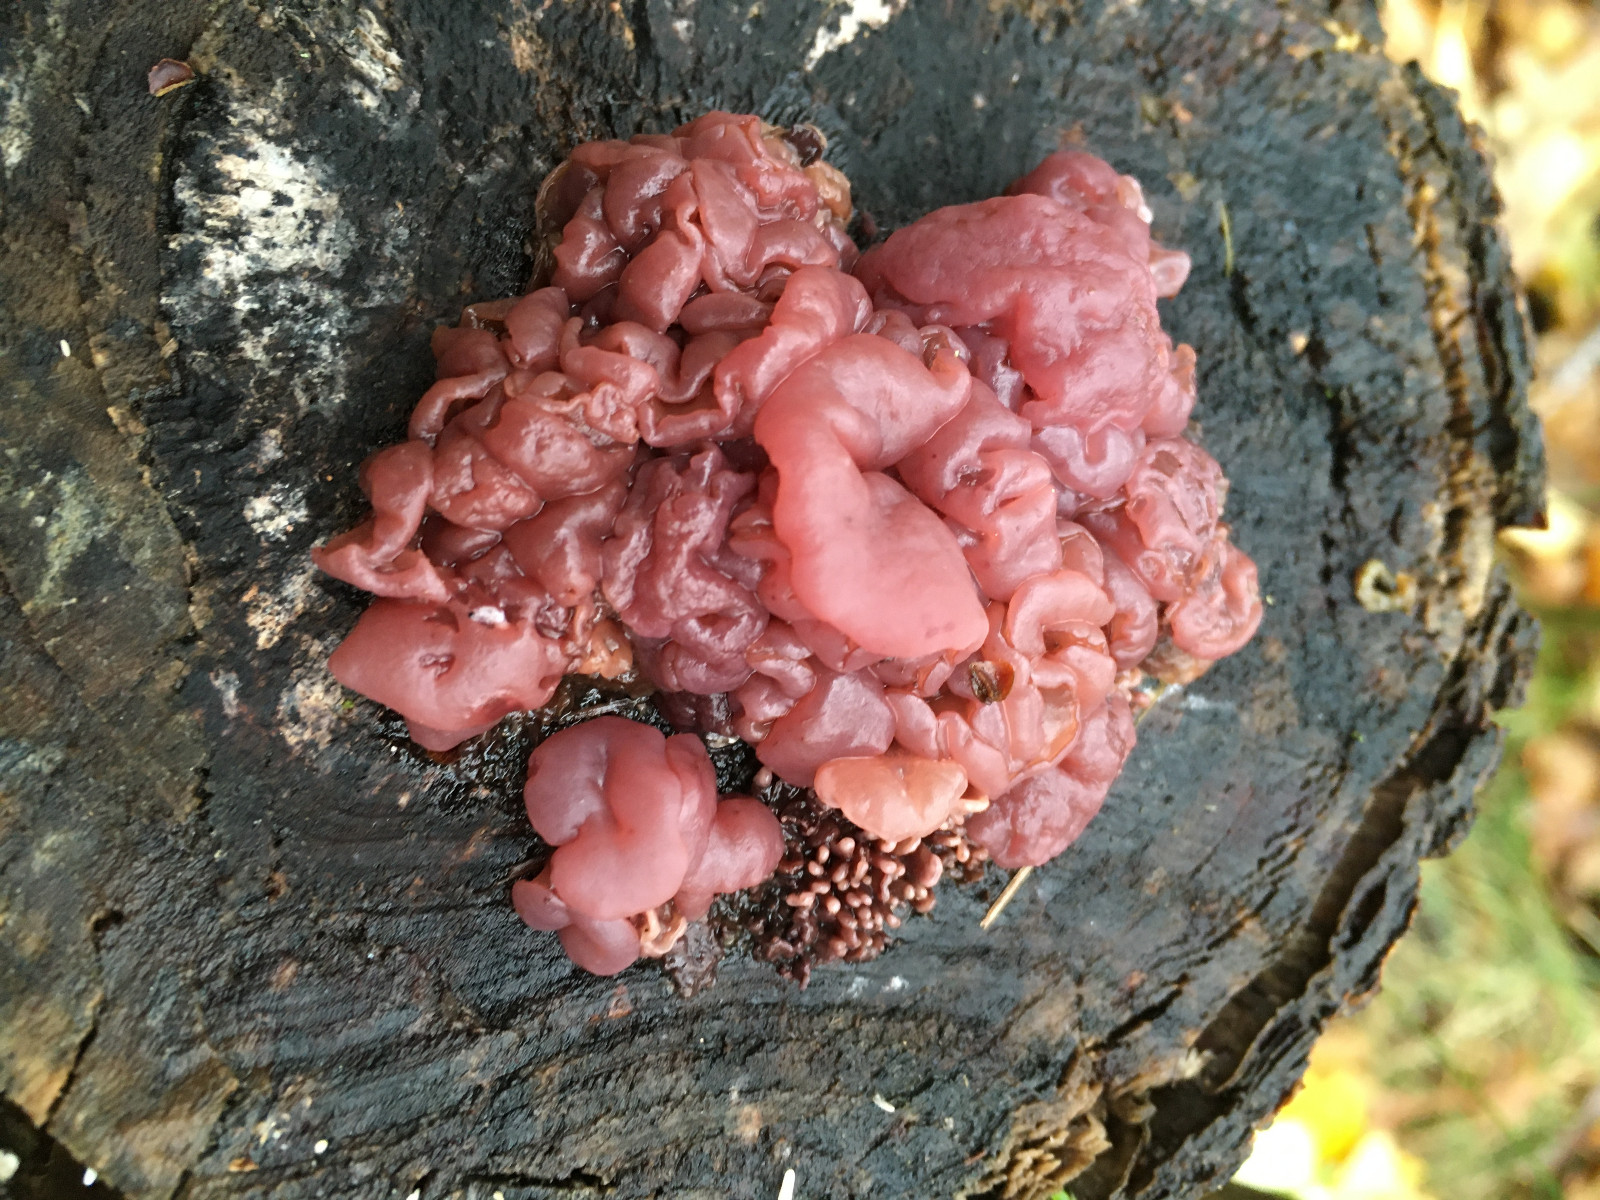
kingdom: Fungi
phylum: Ascomycota
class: Leotiomycetes
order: Helotiales
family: Gelatinodiscaceae
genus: Ascocoryne
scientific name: Ascocoryne sarcoides
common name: rødlilla sejskive
